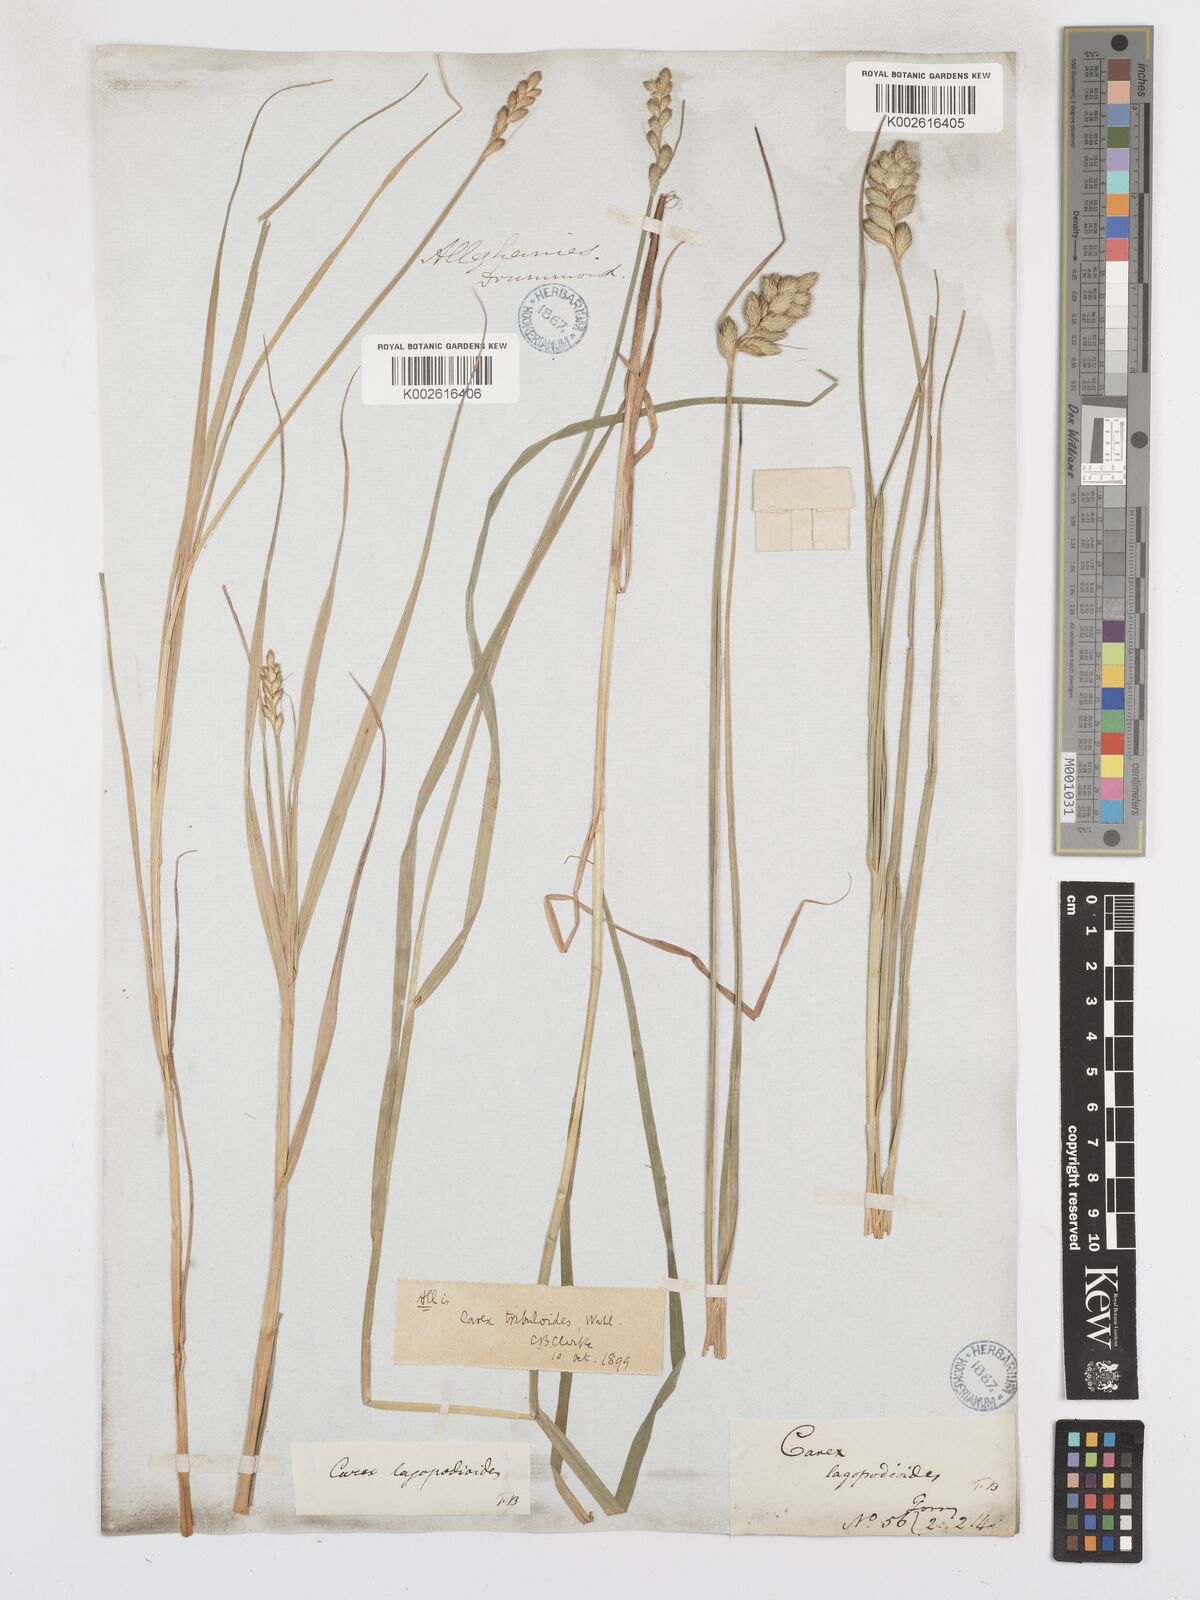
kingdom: Plantae
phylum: Tracheophyta
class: Liliopsida
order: Poales
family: Cyperaceae
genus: Carex
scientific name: Carex tribuloides
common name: Blunt broom sedge
